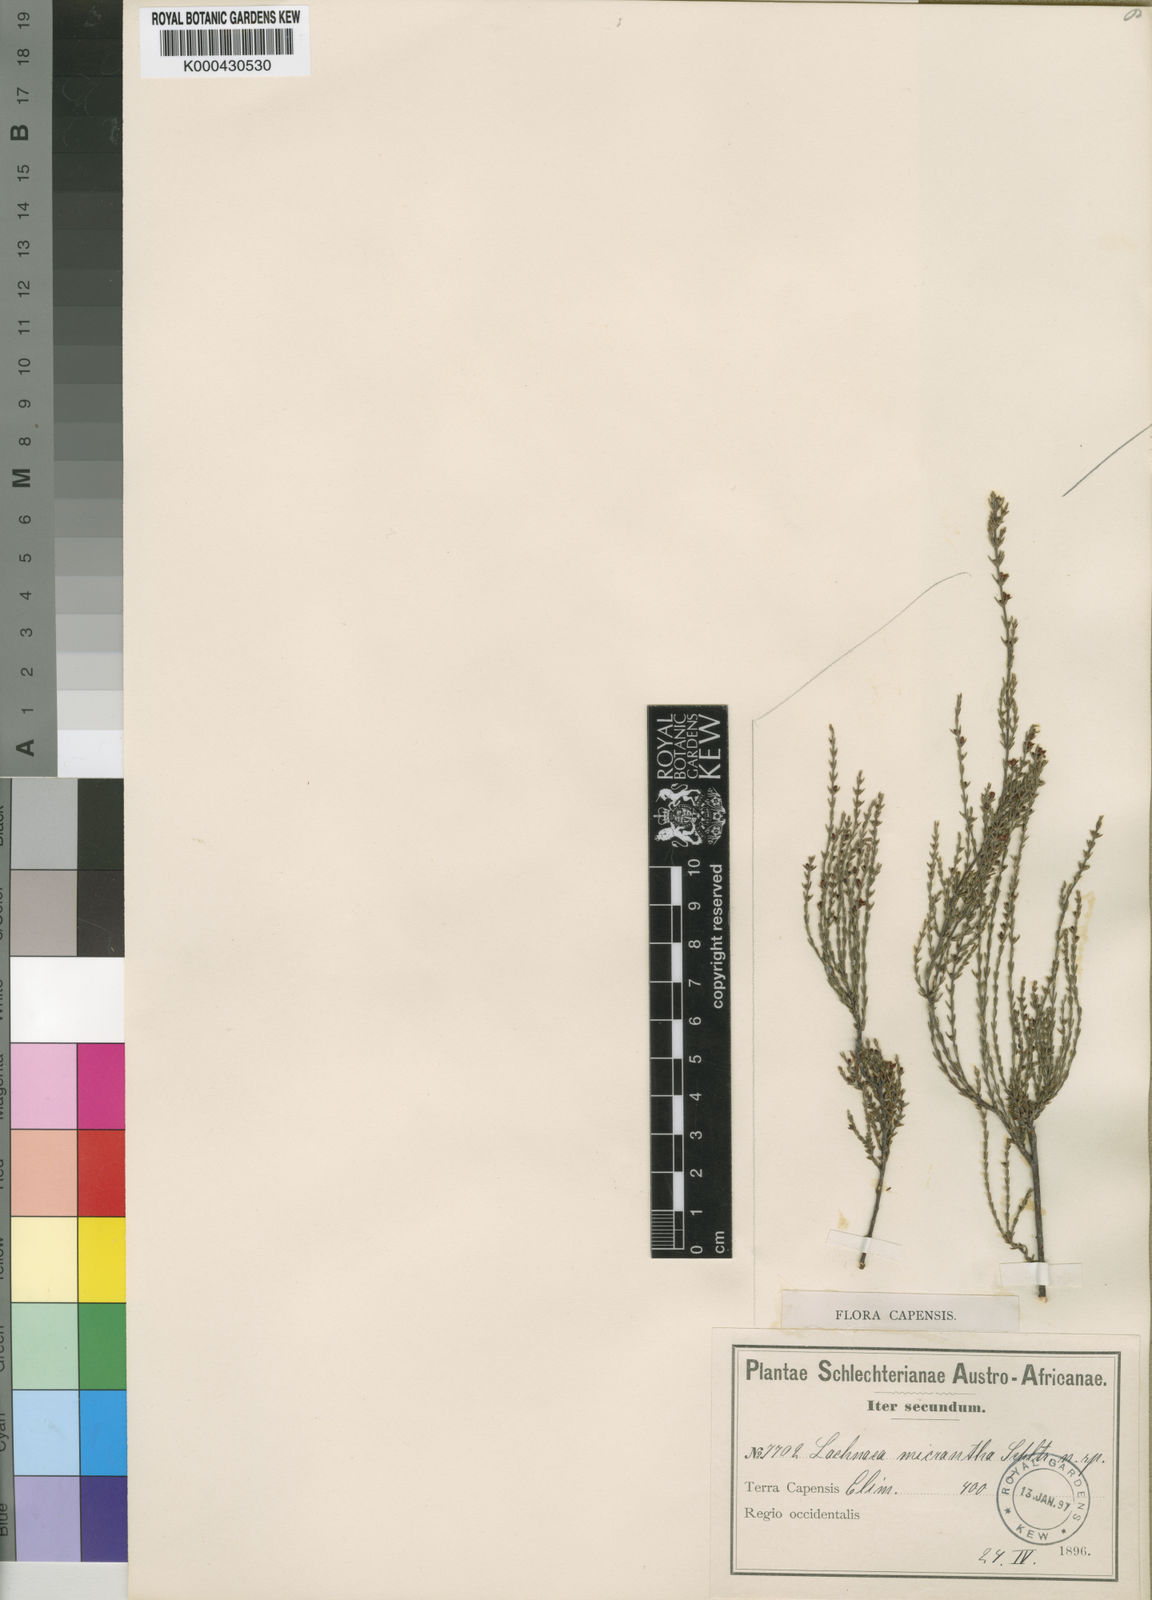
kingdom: Plantae
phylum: Tracheophyta
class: Magnoliopsida
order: Malvales
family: Thymelaeaceae
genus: Lachnaea
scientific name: Lachnaea axillaris
